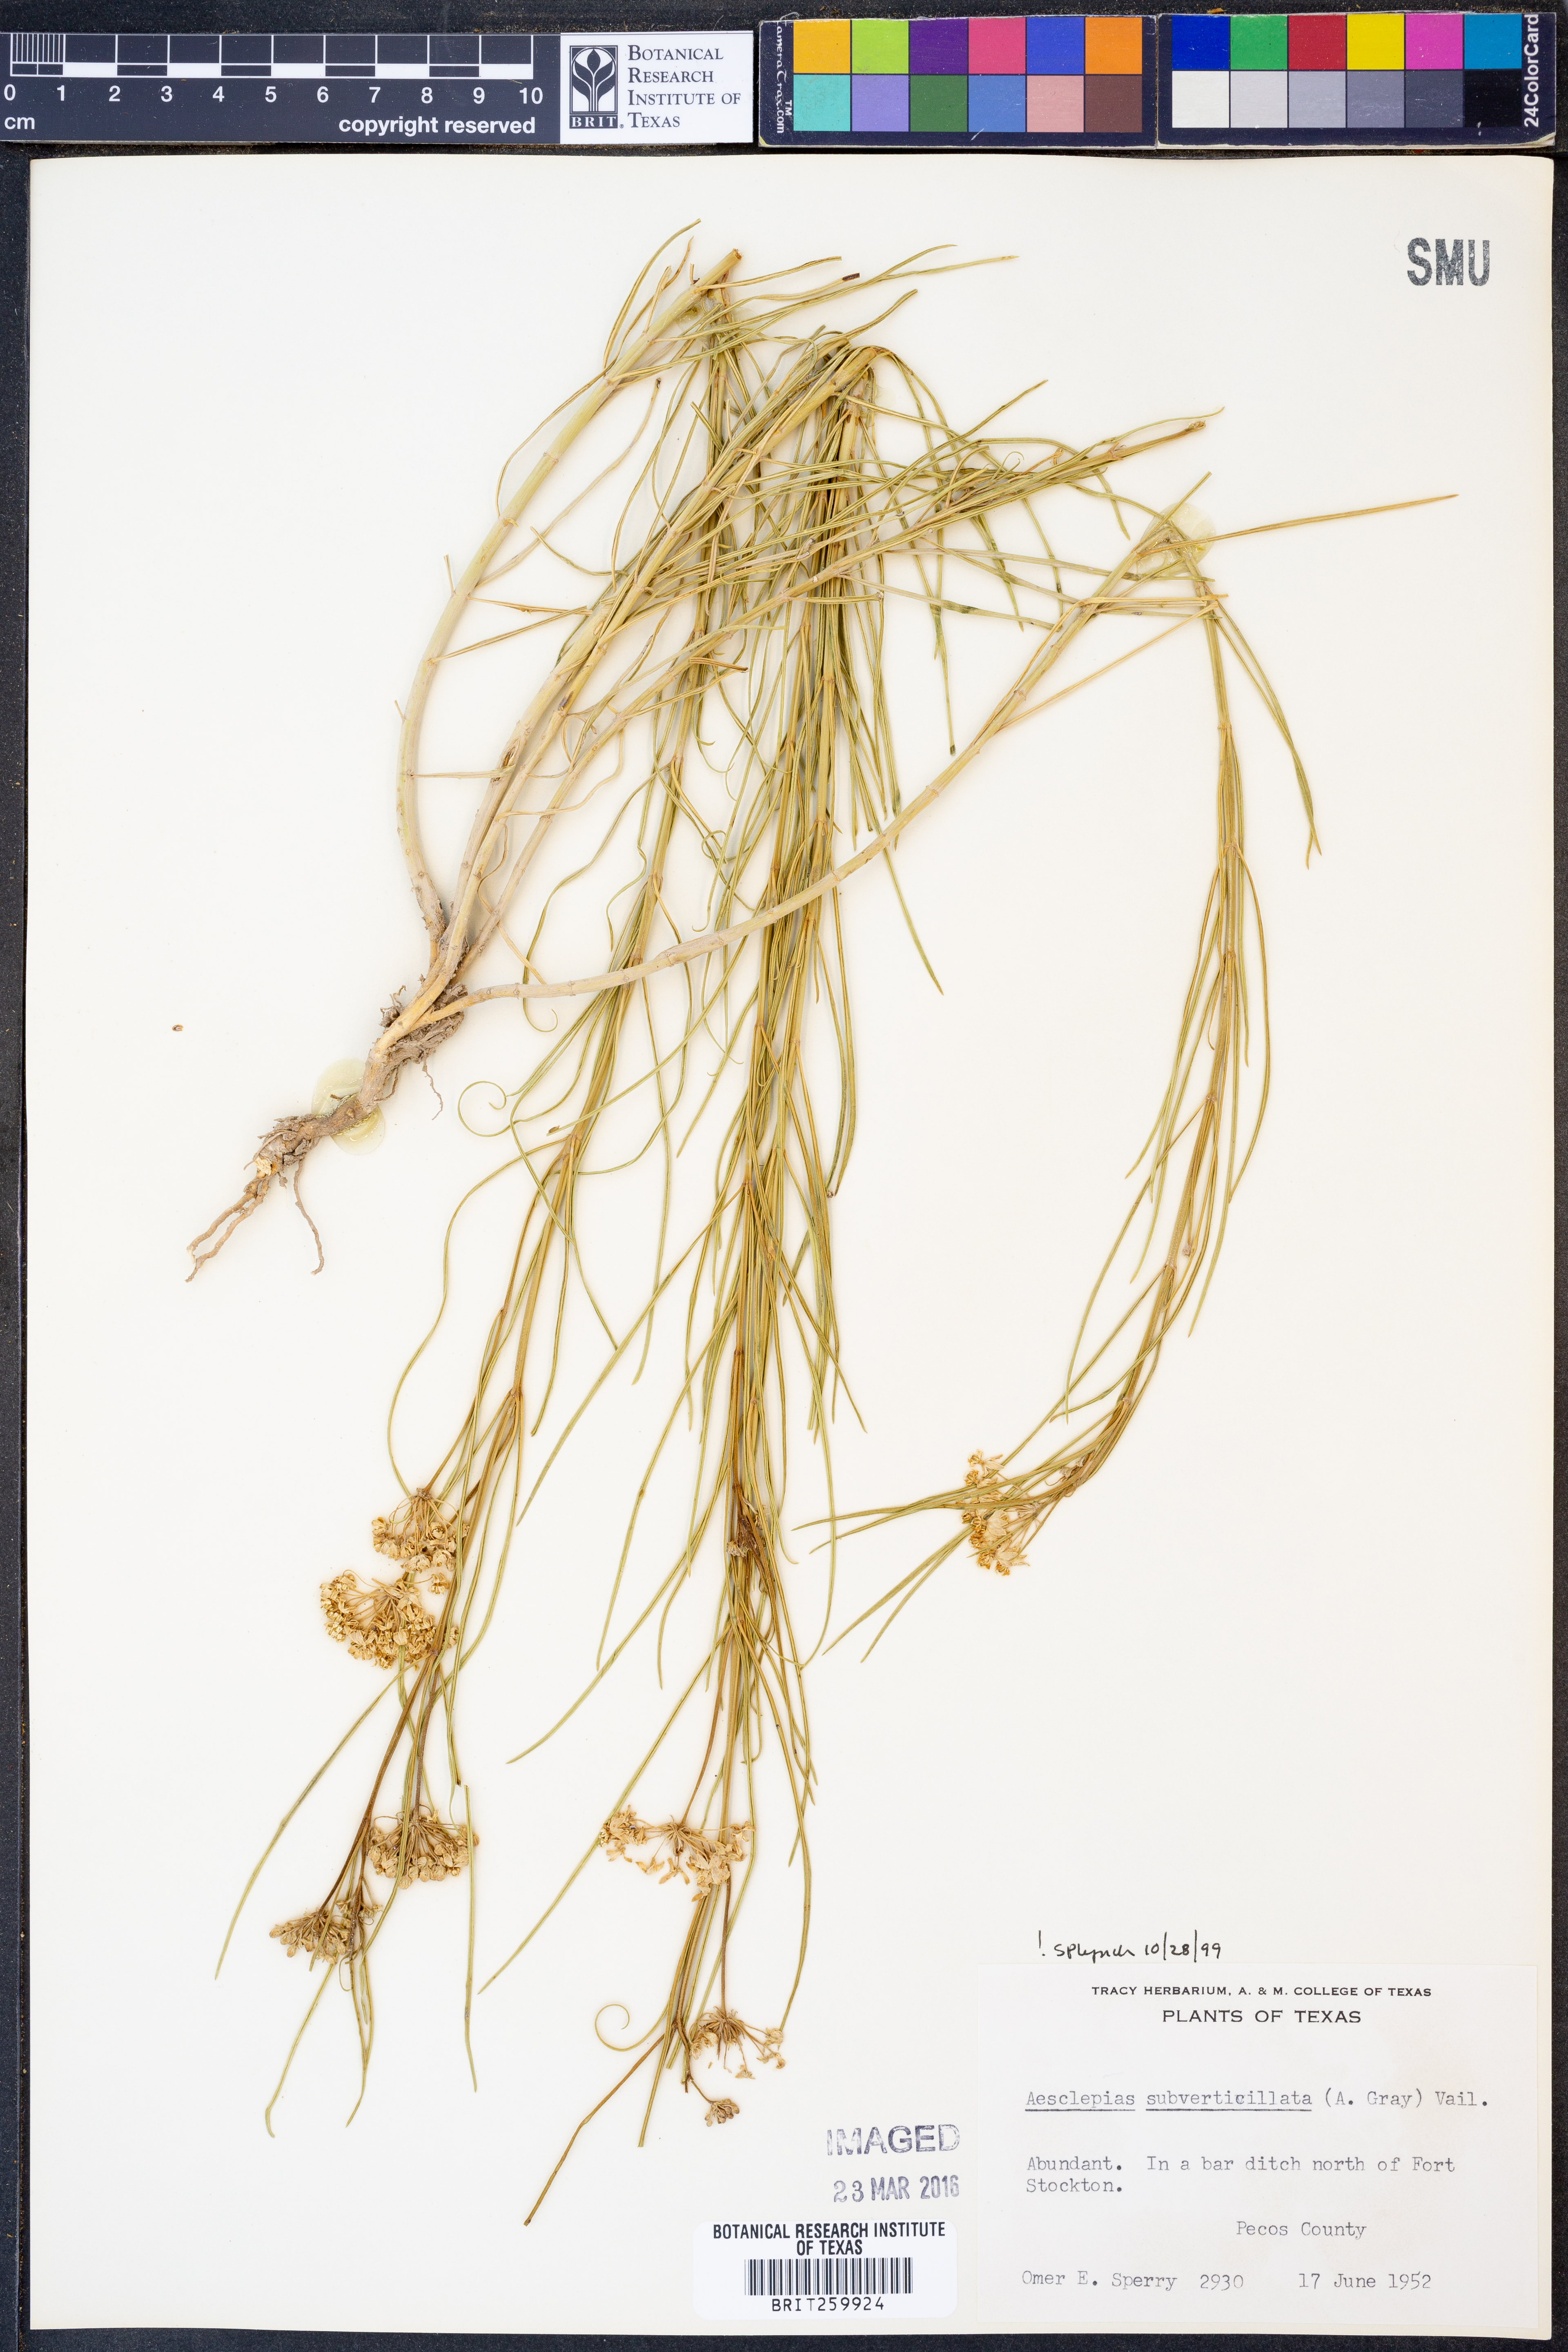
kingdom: Plantae
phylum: Tracheophyta
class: Magnoliopsida
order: Gentianales
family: Apocynaceae
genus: Asclepias
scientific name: Asclepias subverticillata
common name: Horsetail milkweed
